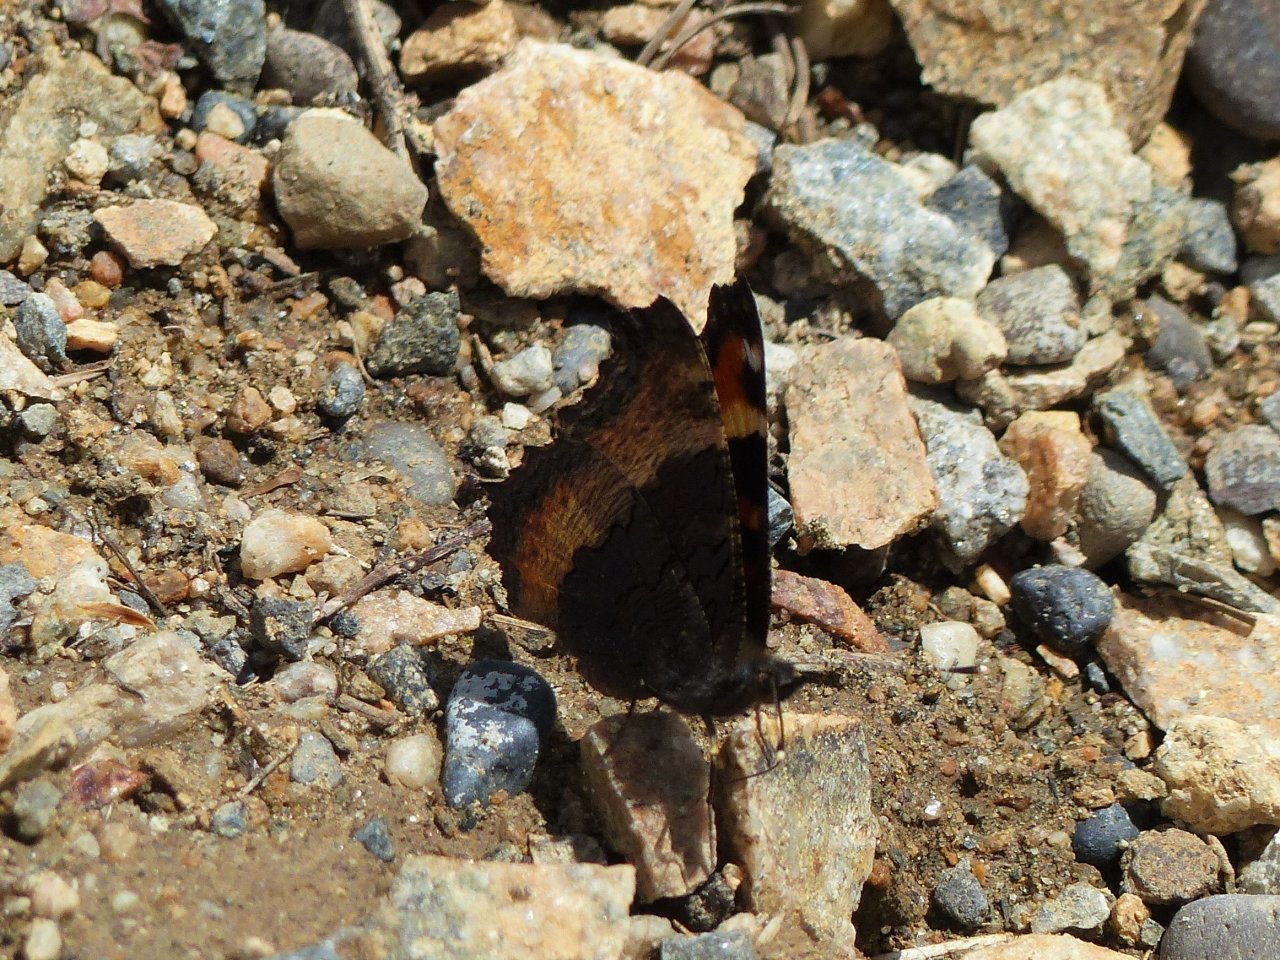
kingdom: Animalia
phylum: Arthropoda
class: Insecta
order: Lepidoptera
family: Nymphalidae
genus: Aglais
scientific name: Aglais milberti
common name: Milbert's Tortoiseshell
